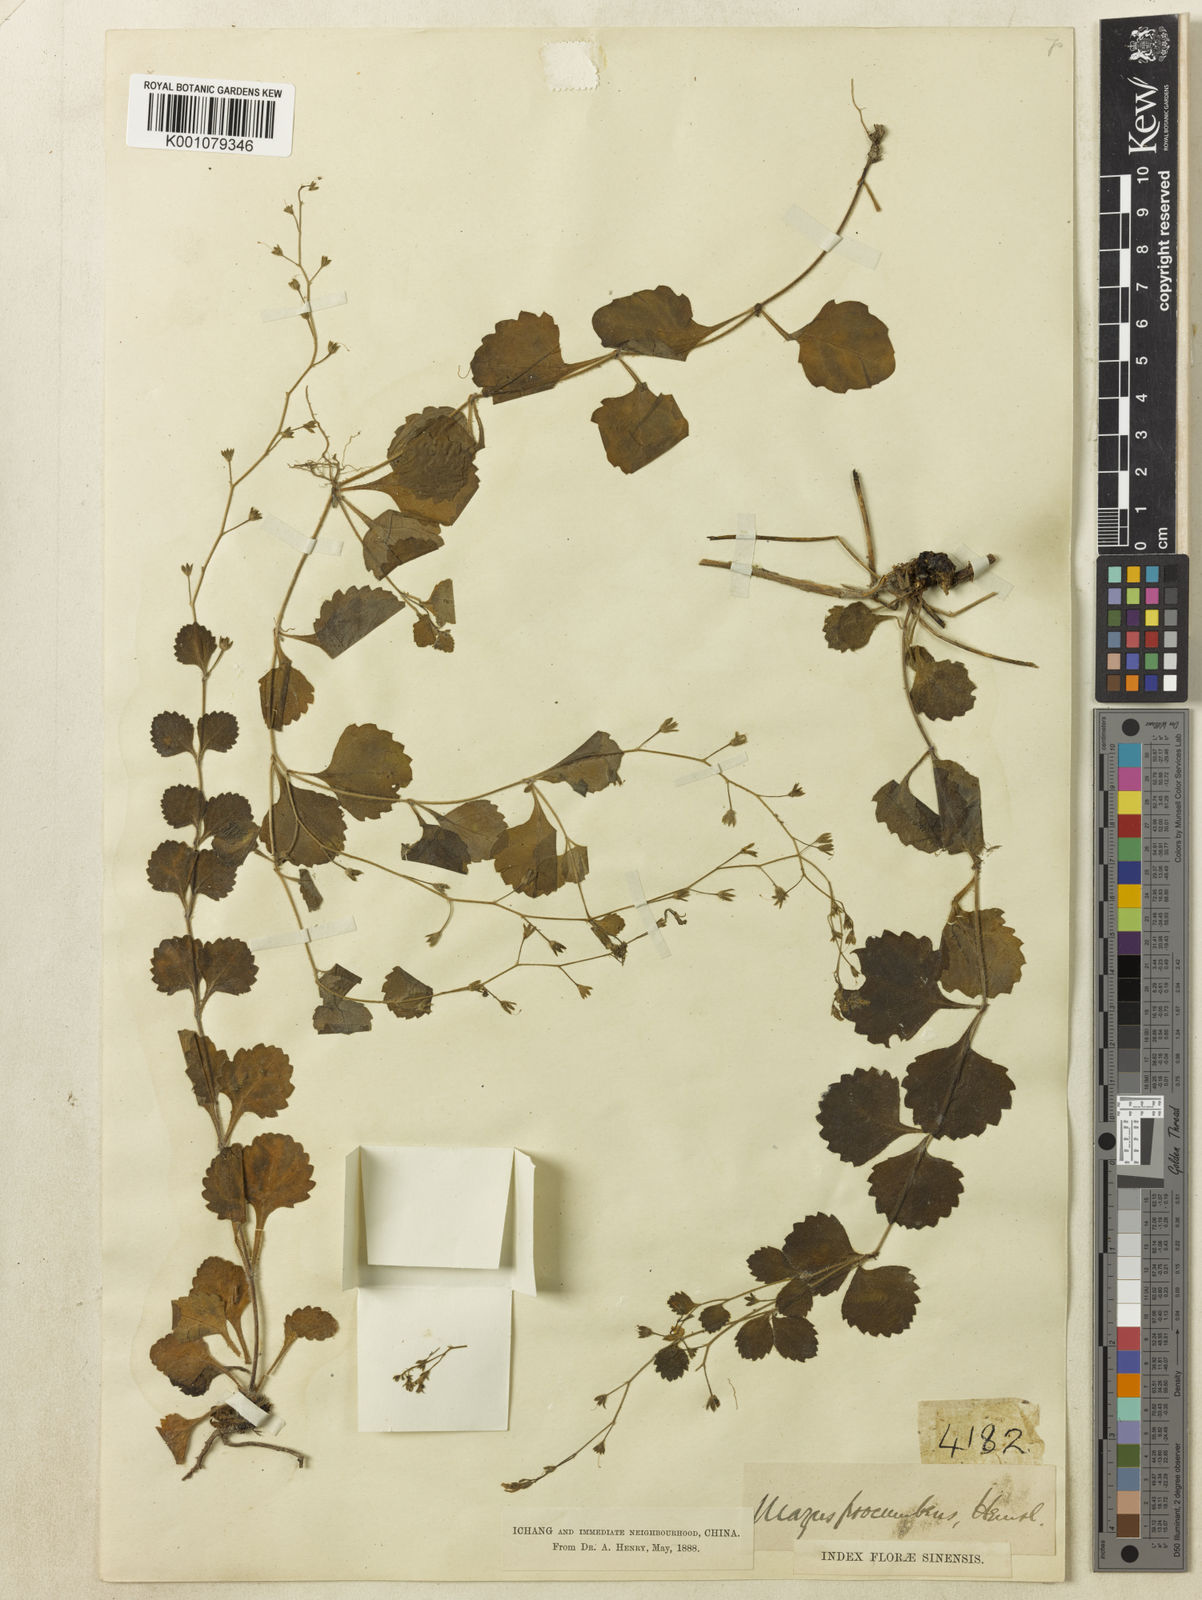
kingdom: Plantae
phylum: Tracheophyta
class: Magnoliopsida
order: Lamiales
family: Mazaceae
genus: Mazus
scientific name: Mazus procumbens
